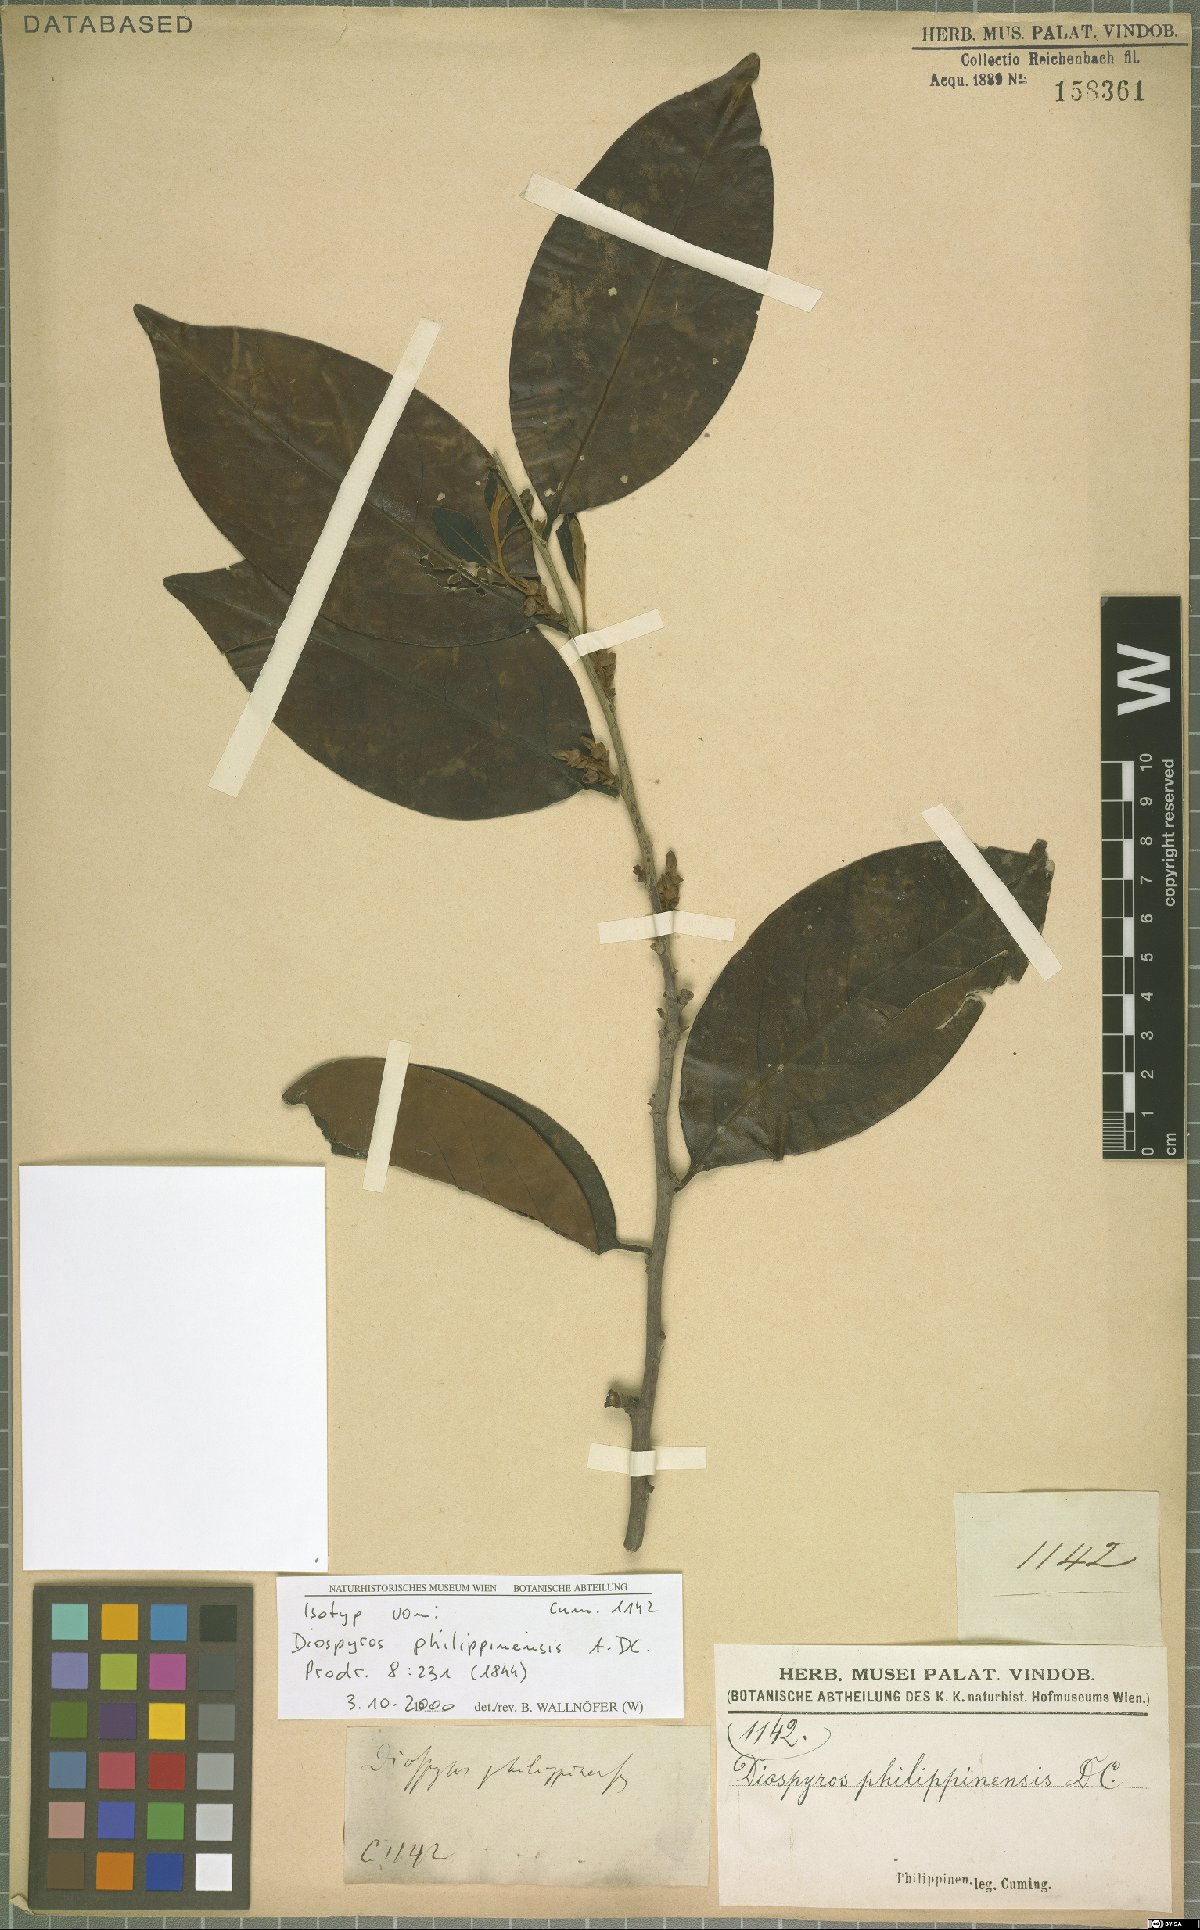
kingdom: Plantae
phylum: Tracheophyta
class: Magnoliopsida
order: Ericales
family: Ebenaceae
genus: Diospyros
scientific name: Diospyros philippinensis
